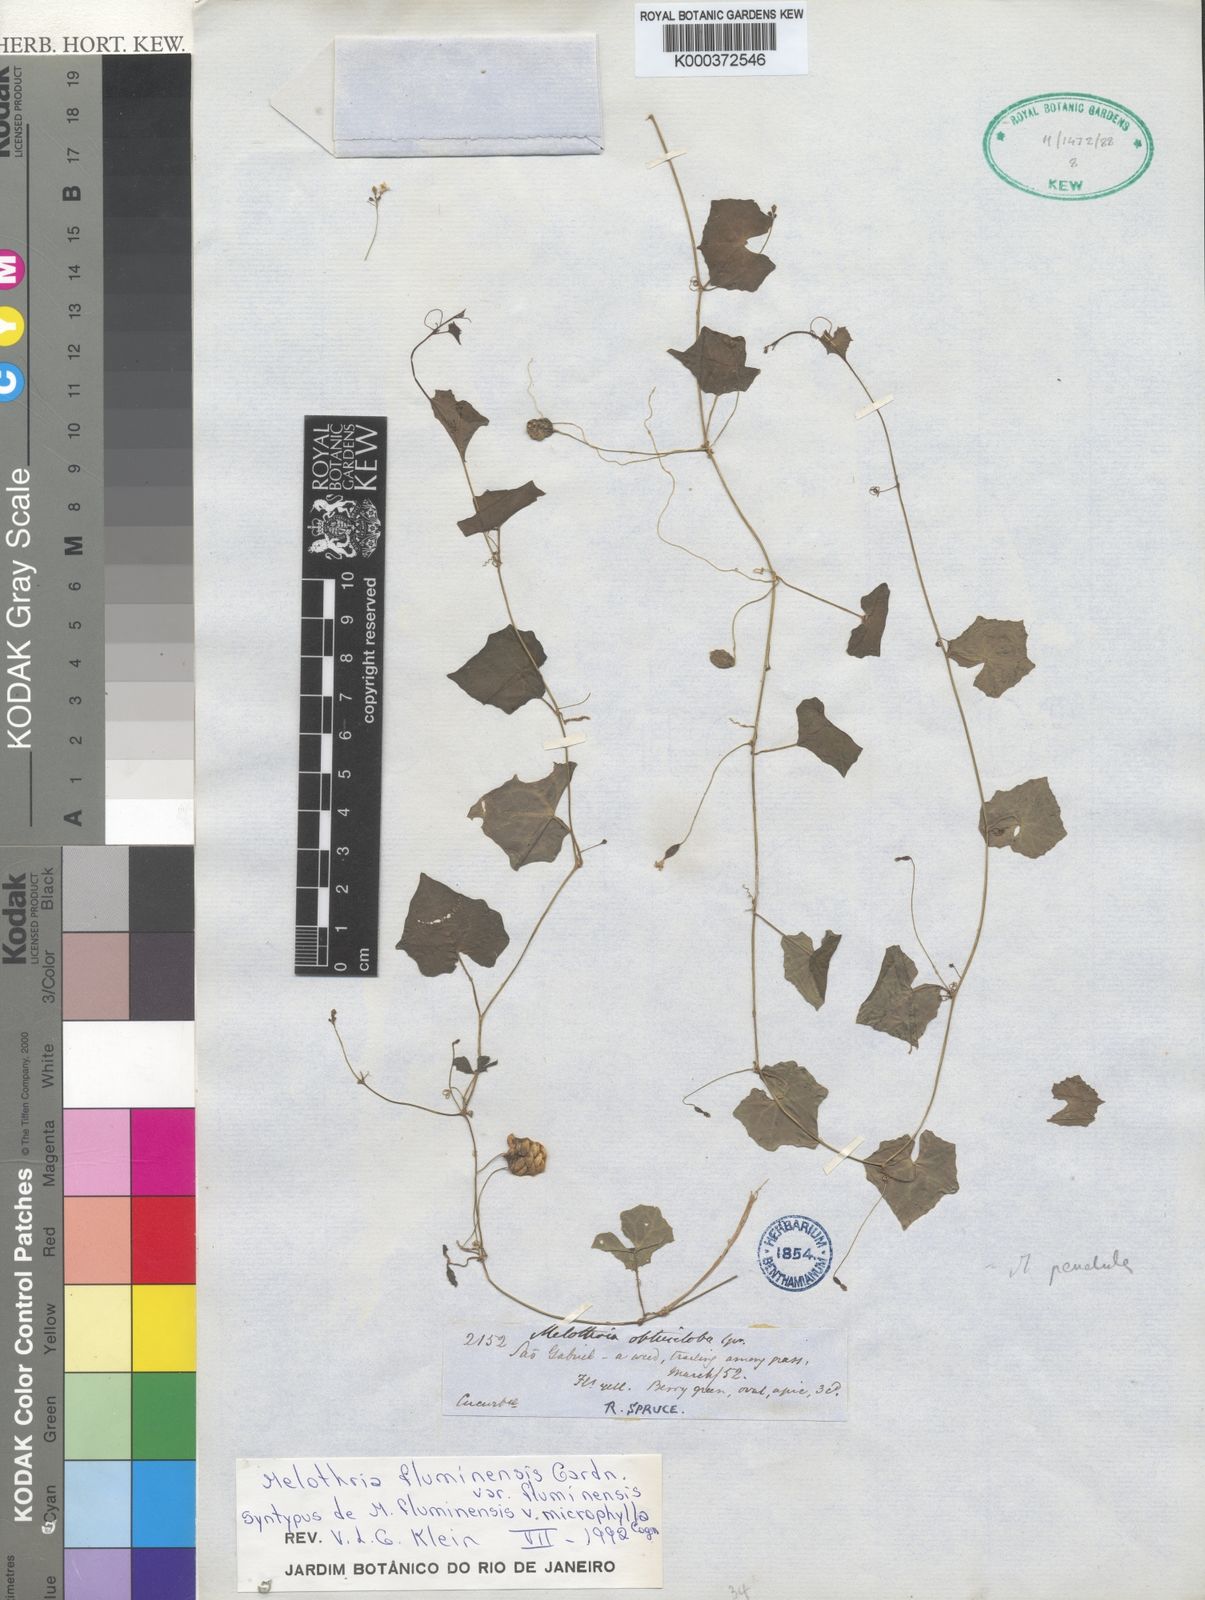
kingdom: Plantae
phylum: Tracheophyta
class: Magnoliopsida
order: Cucurbitales
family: Cucurbitaceae
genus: Melothria
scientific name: Melothria pendula
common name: Creeping-cucumber
